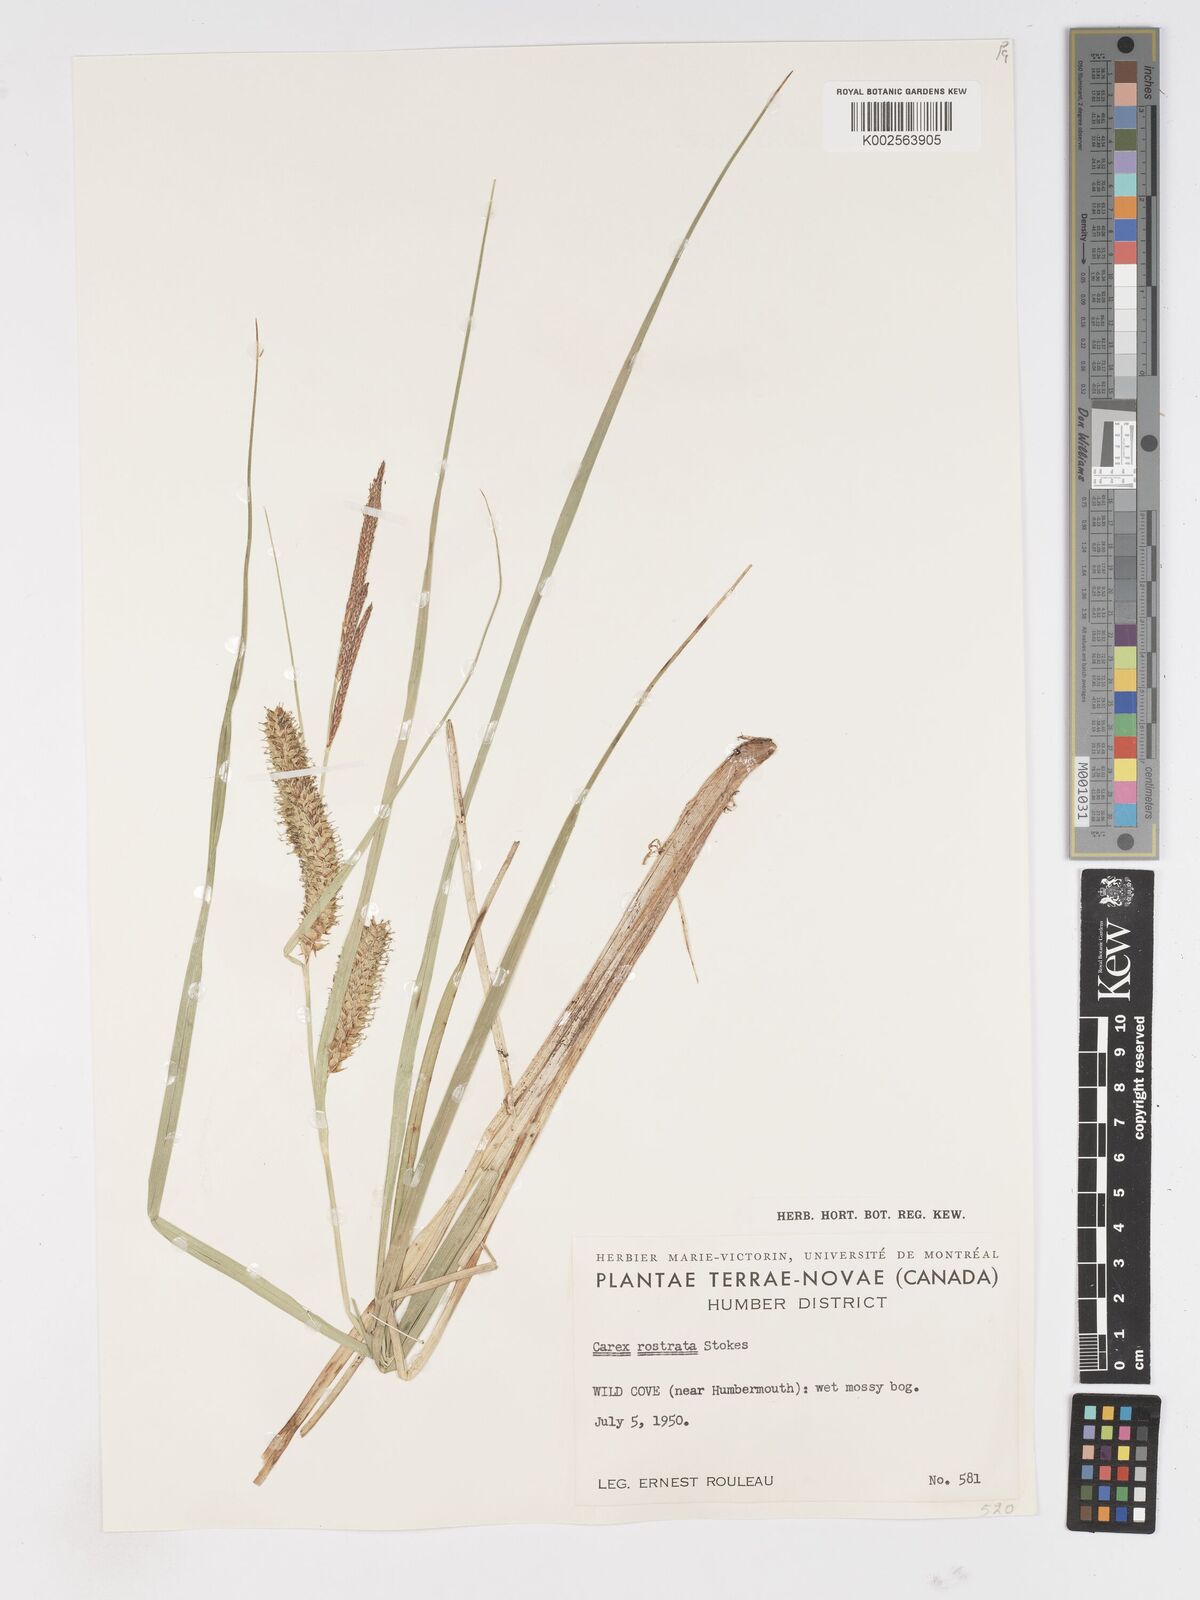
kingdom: Plantae
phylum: Tracheophyta
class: Liliopsida
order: Poales
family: Cyperaceae
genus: Carex
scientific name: Carex rostrata
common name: Bottle sedge
